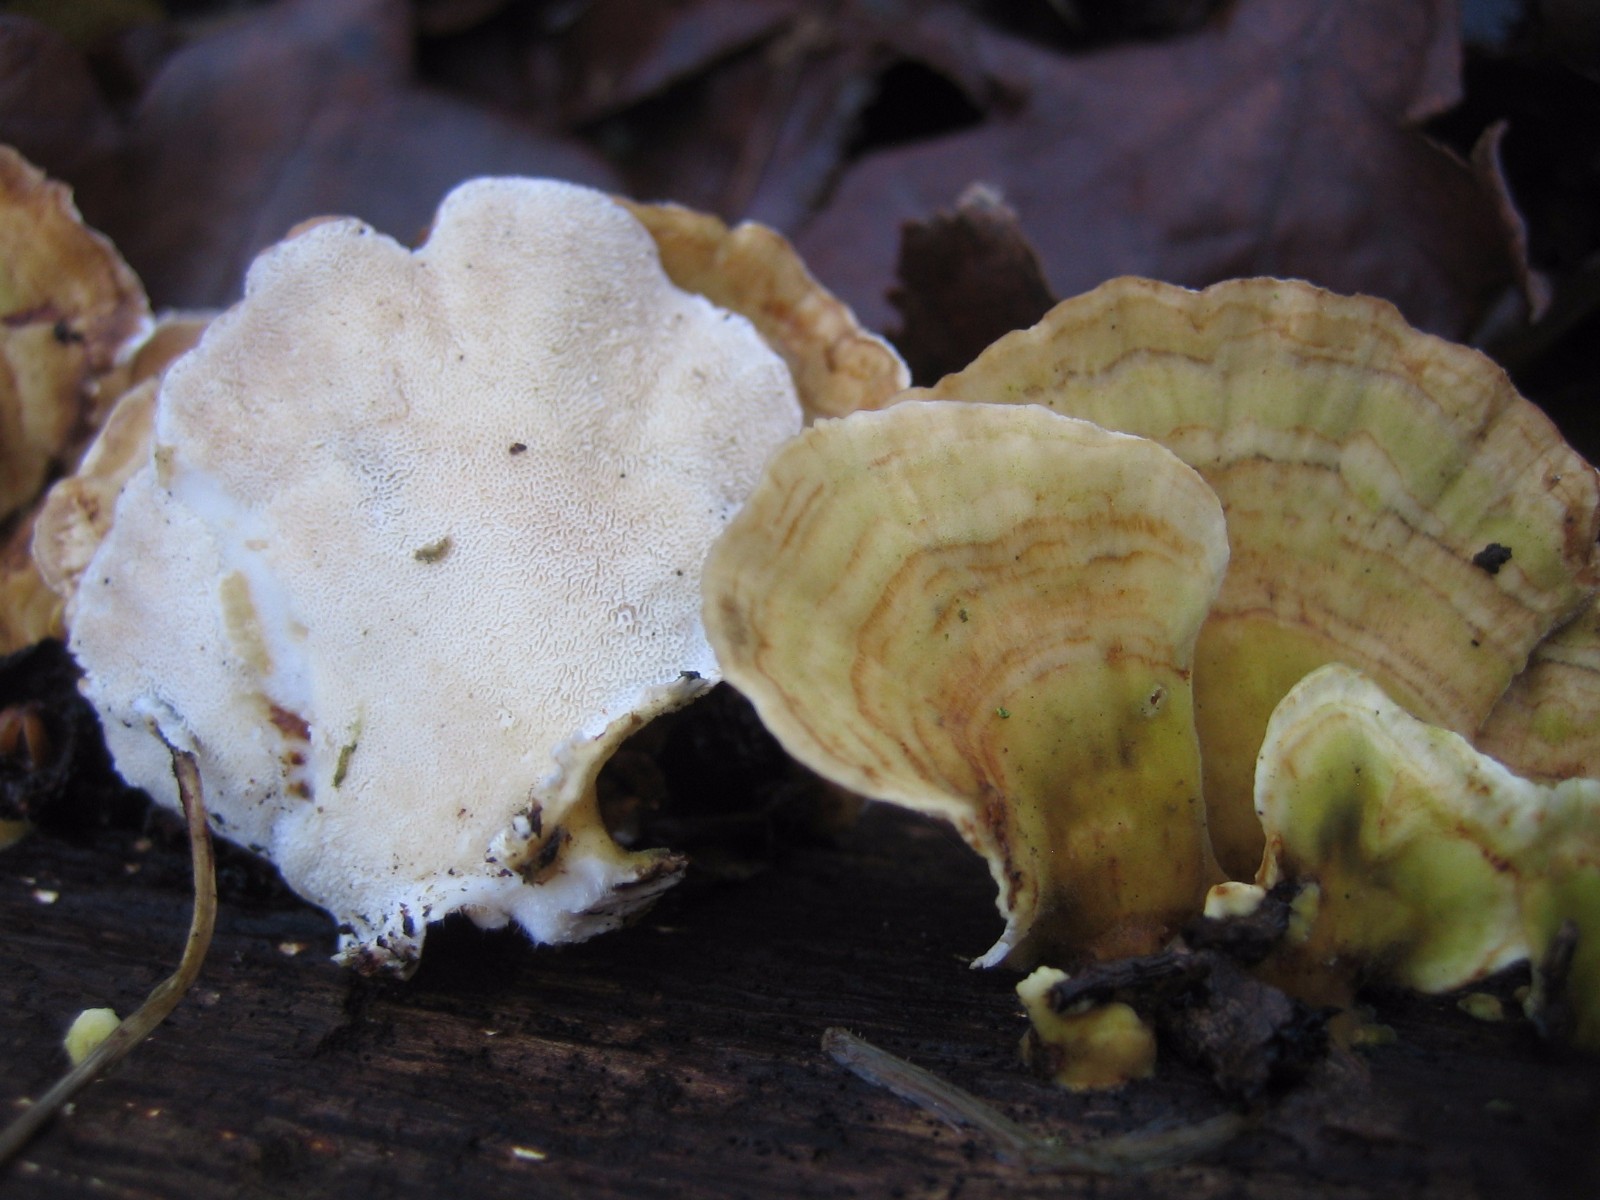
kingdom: Fungi
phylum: Basidiomycota
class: Agaricomycetes
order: Polyporales
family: Polyporaceae
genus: Trametes
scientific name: Trametes versicolor
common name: broget læderporesvamp
